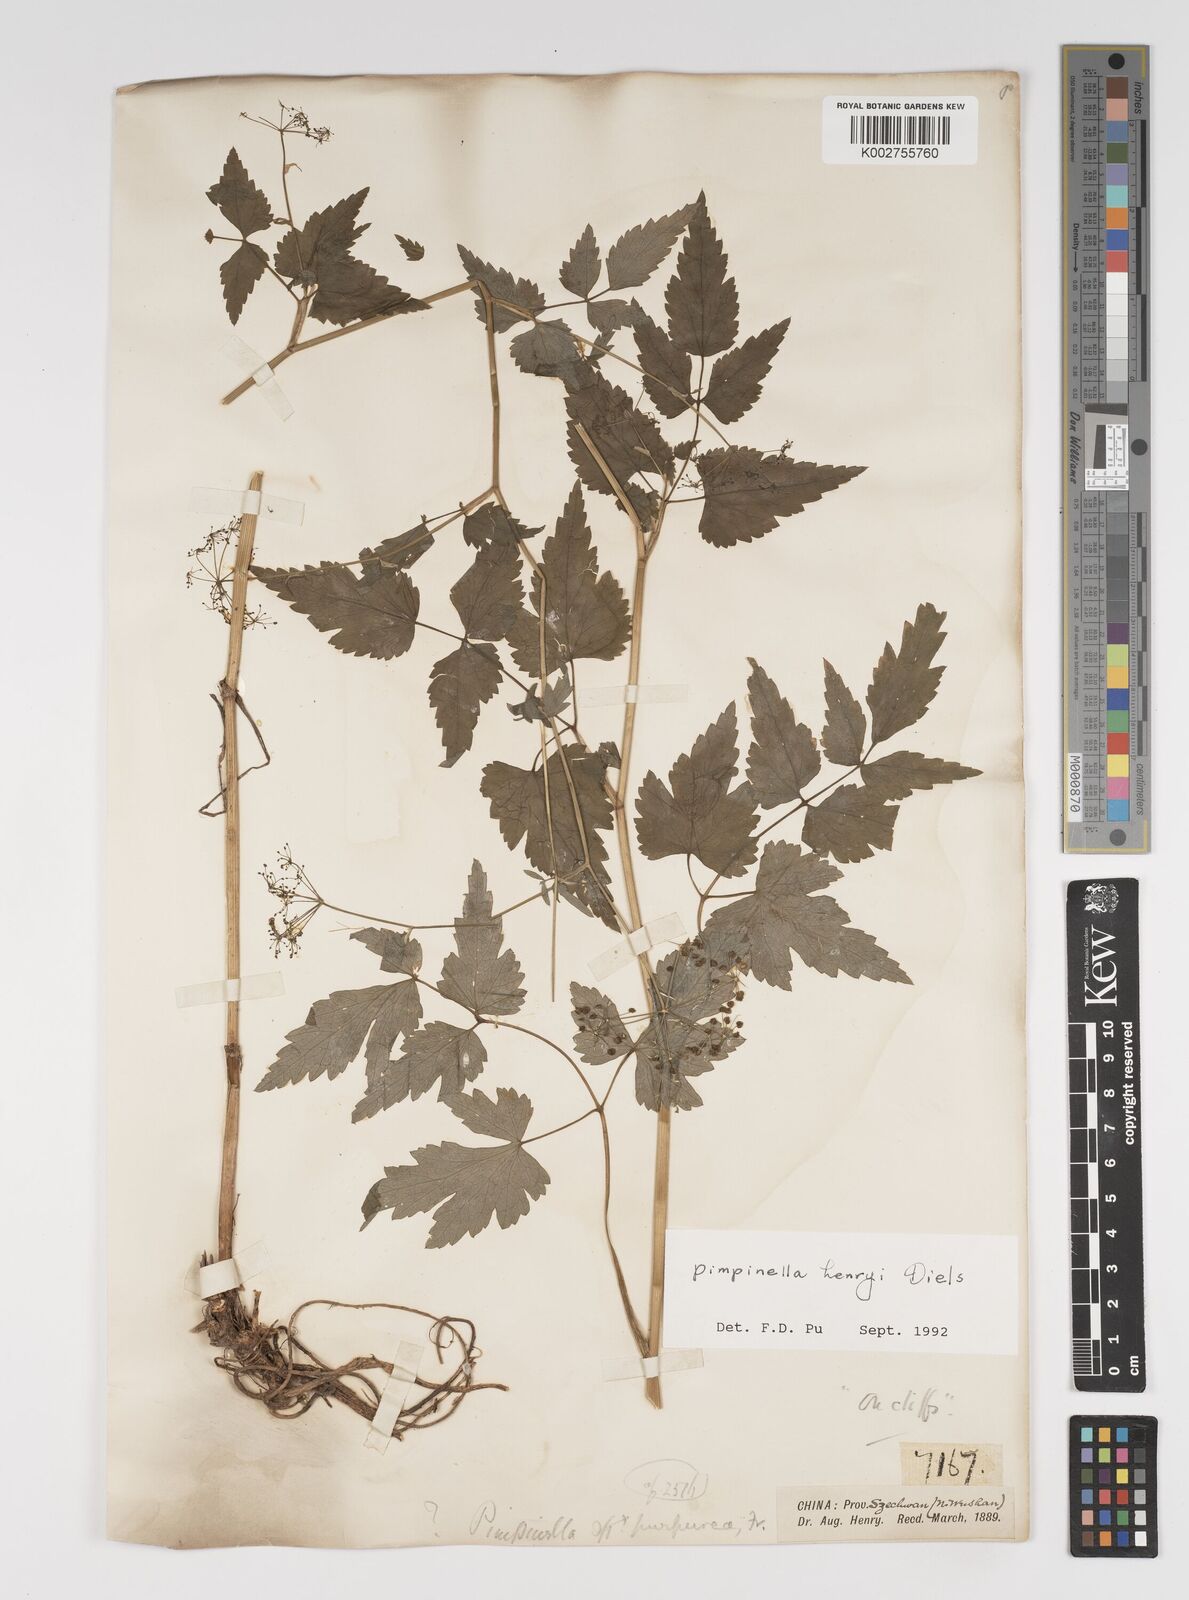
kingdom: Plantae
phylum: Tracheophyta
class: Magnoliopsida
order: Apiales
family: Apiaceae
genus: Pimpinella
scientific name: Pimpinella
